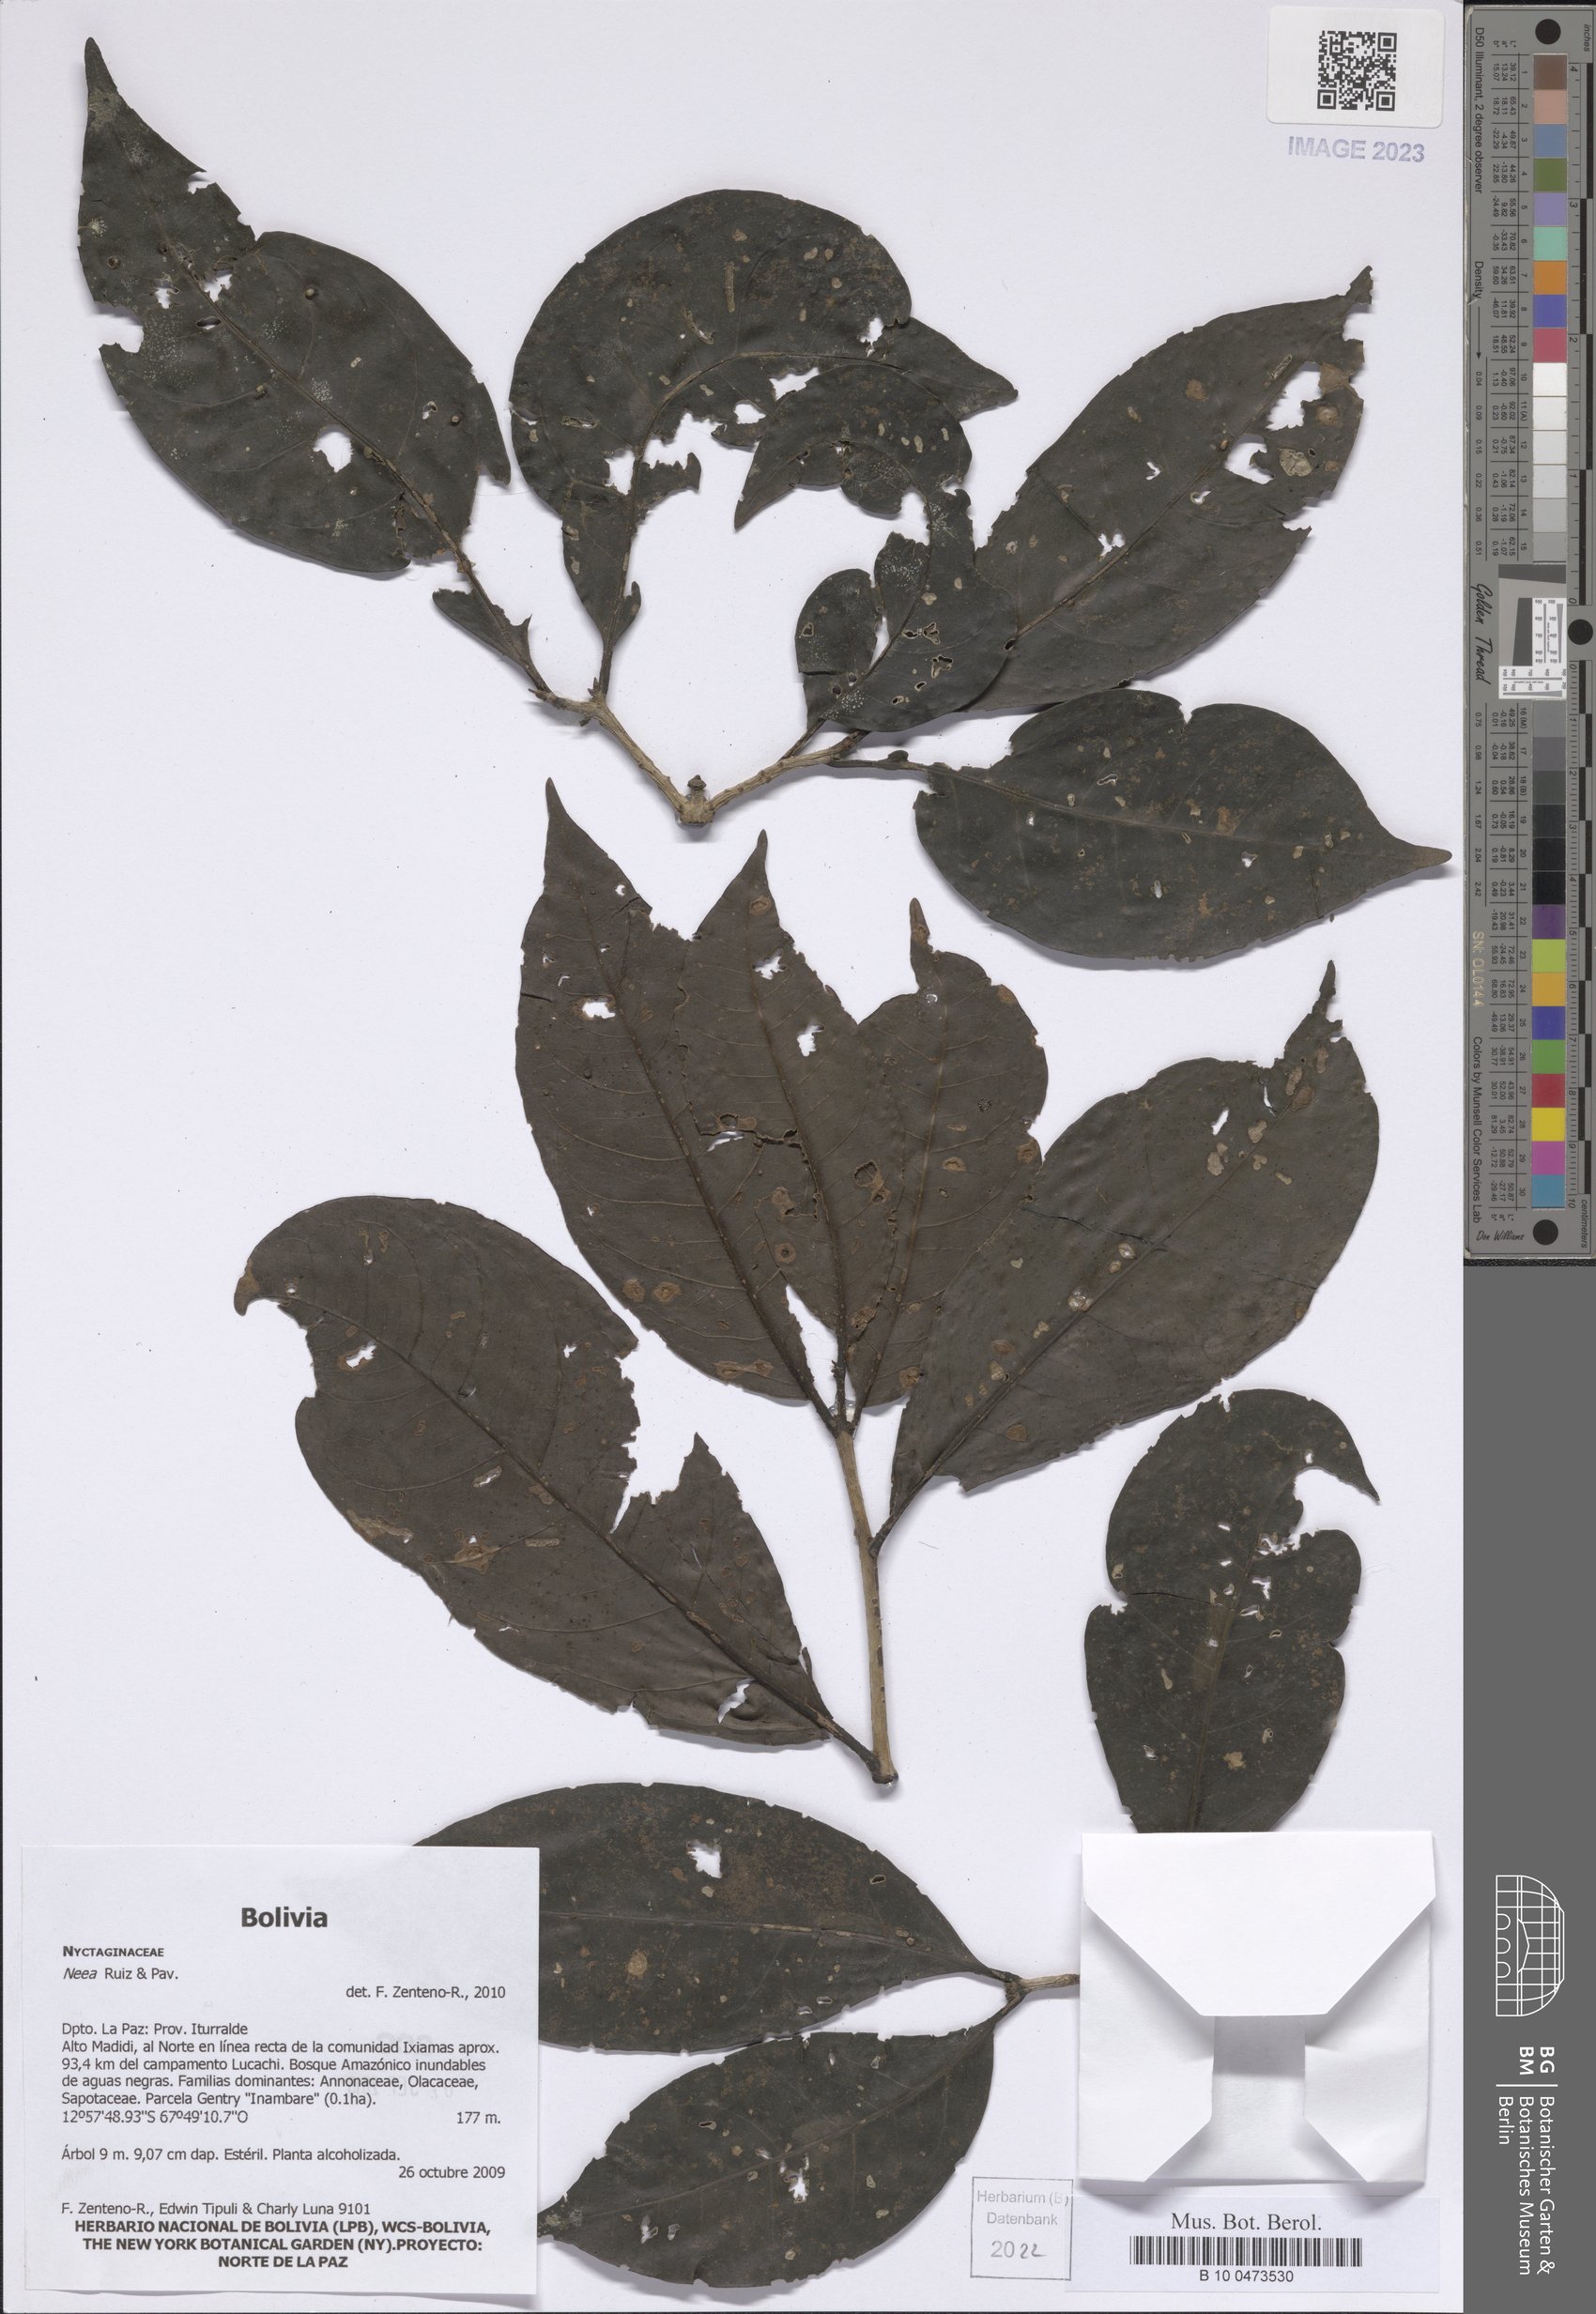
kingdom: Plantae
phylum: Tracheophyta
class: Magnoliopsida
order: Caryophyllales
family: Nyctaginaceae
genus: Neea
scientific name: Neea
